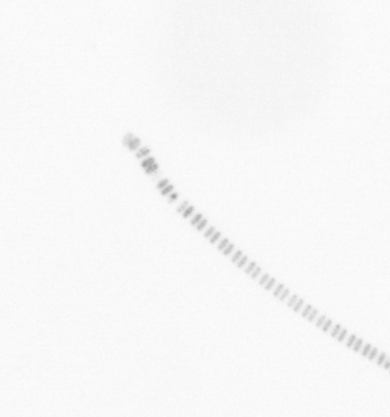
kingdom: Chromista
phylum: Ochrophyta
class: Bacillariophyceae
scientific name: Bacillariophyceae
